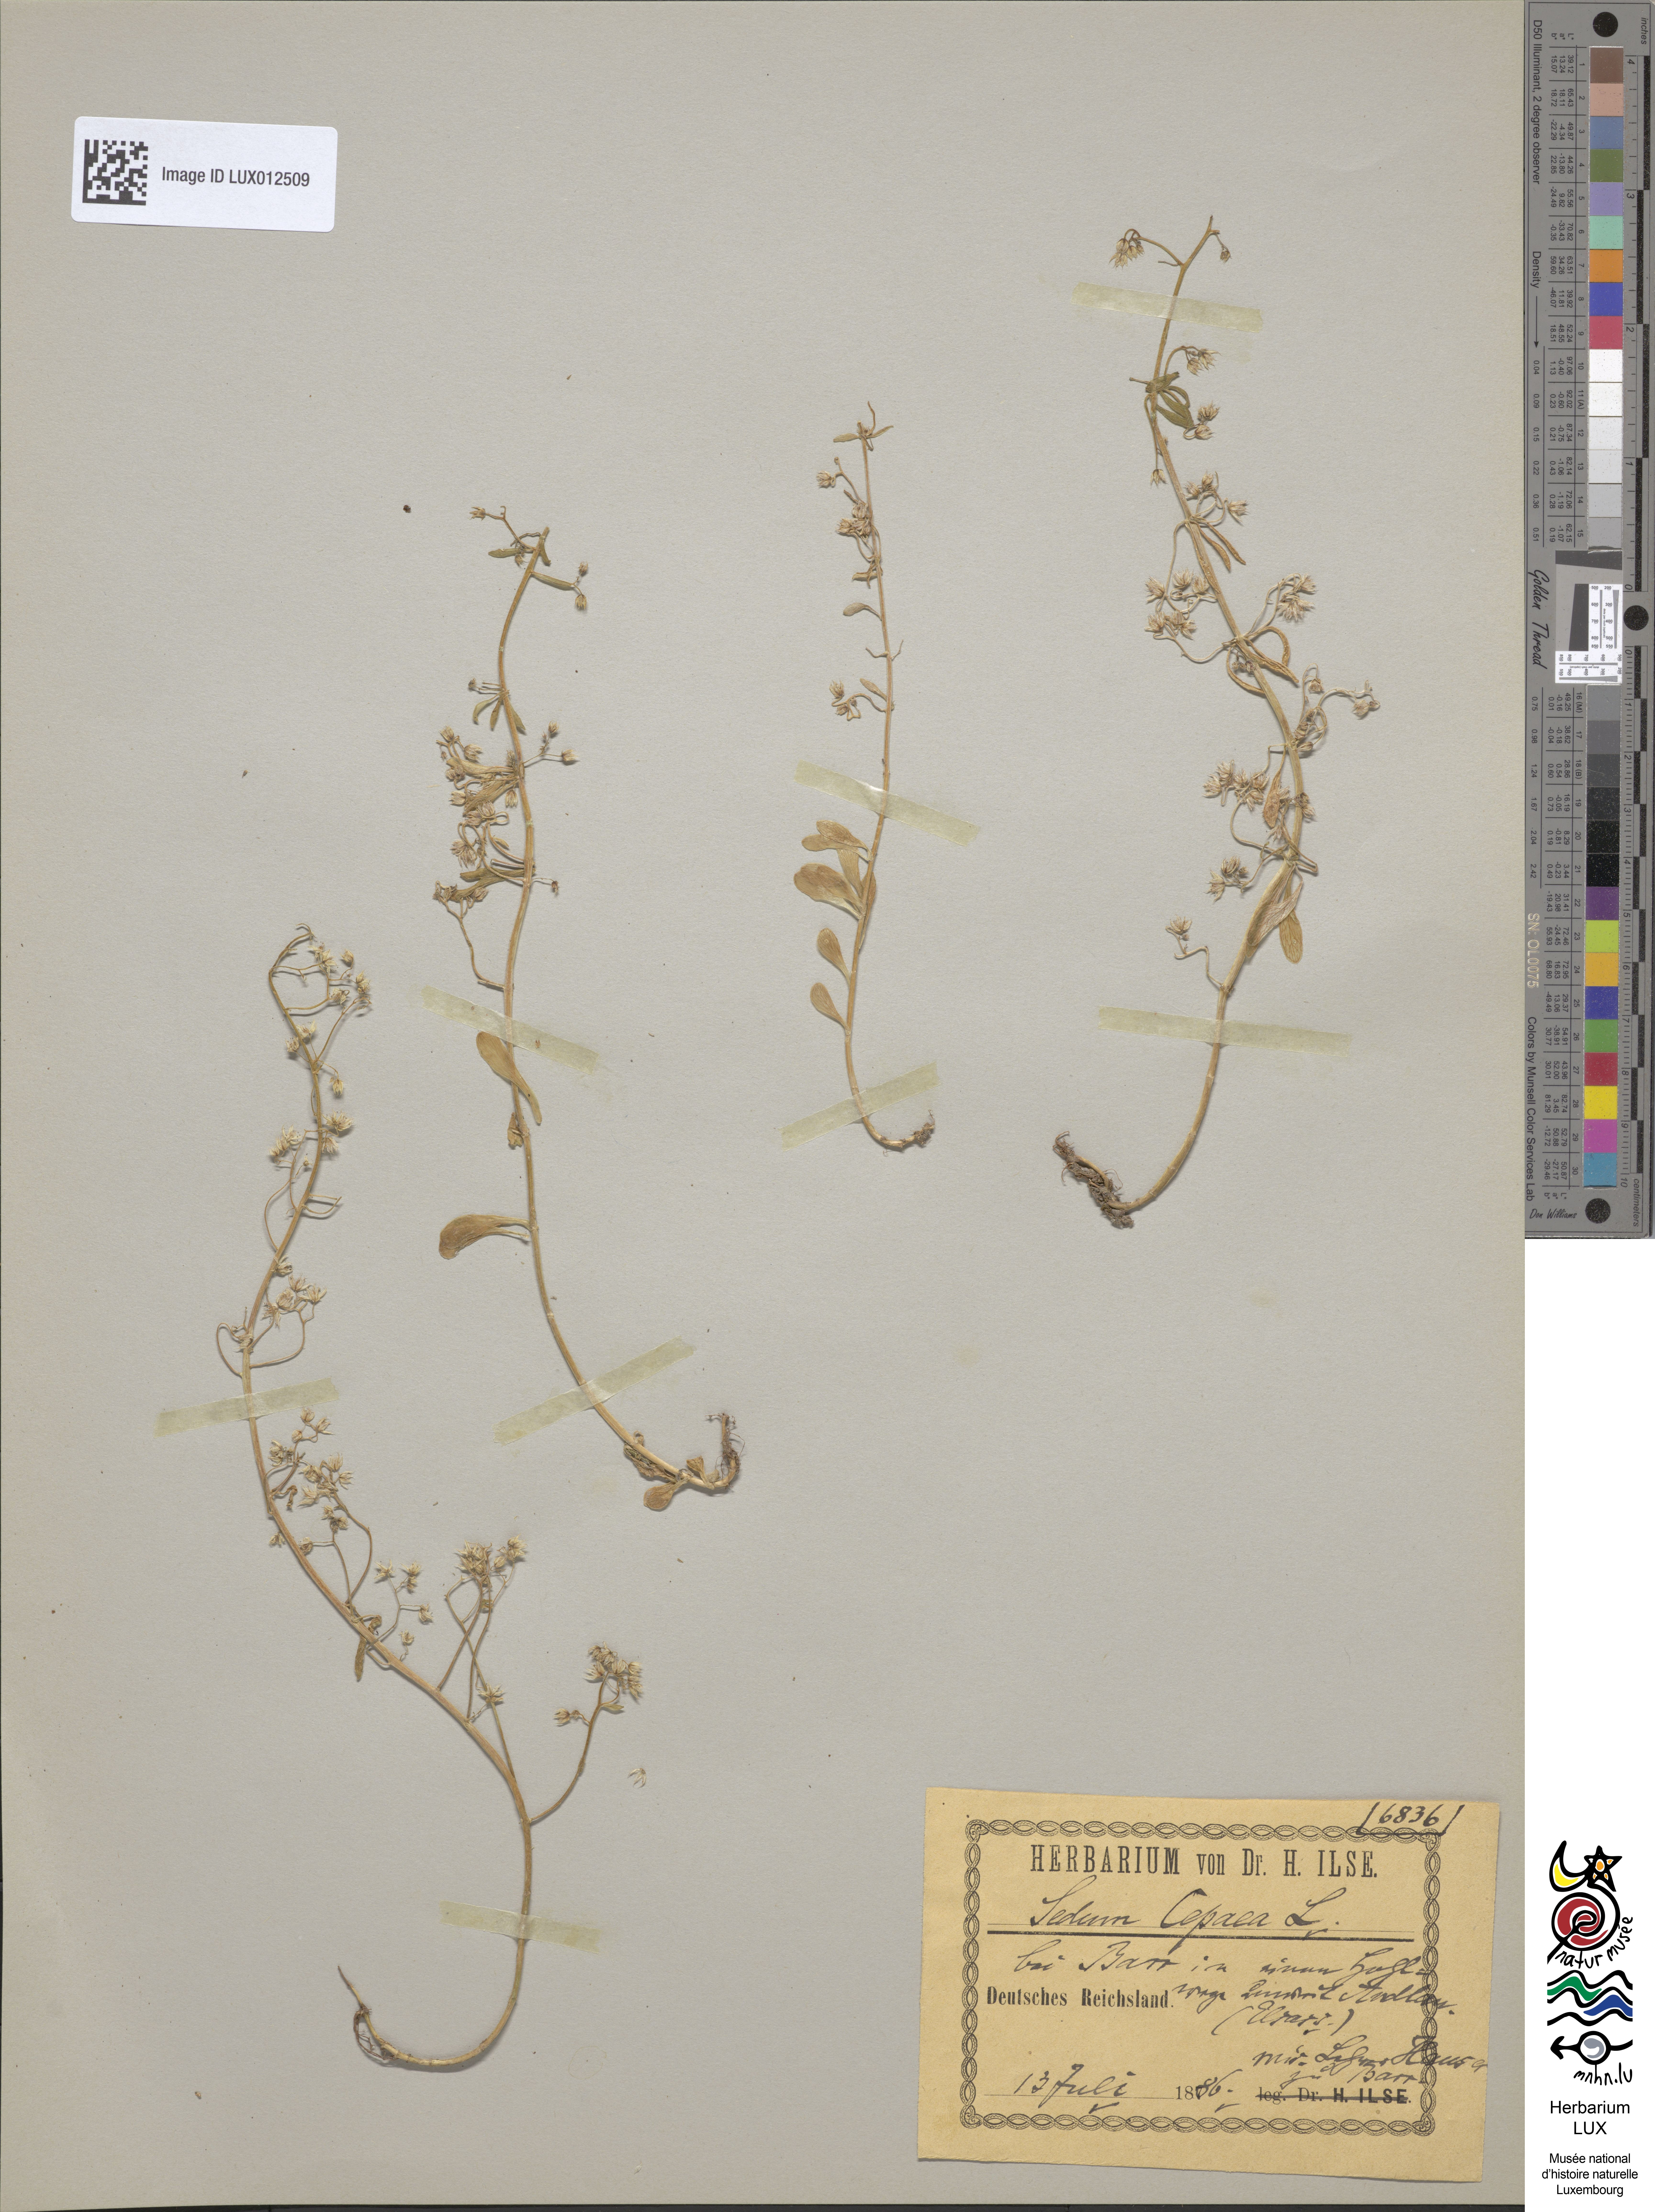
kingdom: Plantae
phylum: Tracheophyta
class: Magnoliopsida
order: Saxifragales
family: Crassulaceae
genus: Sedum
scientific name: Sedum cepaea
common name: Pink stonecrop
